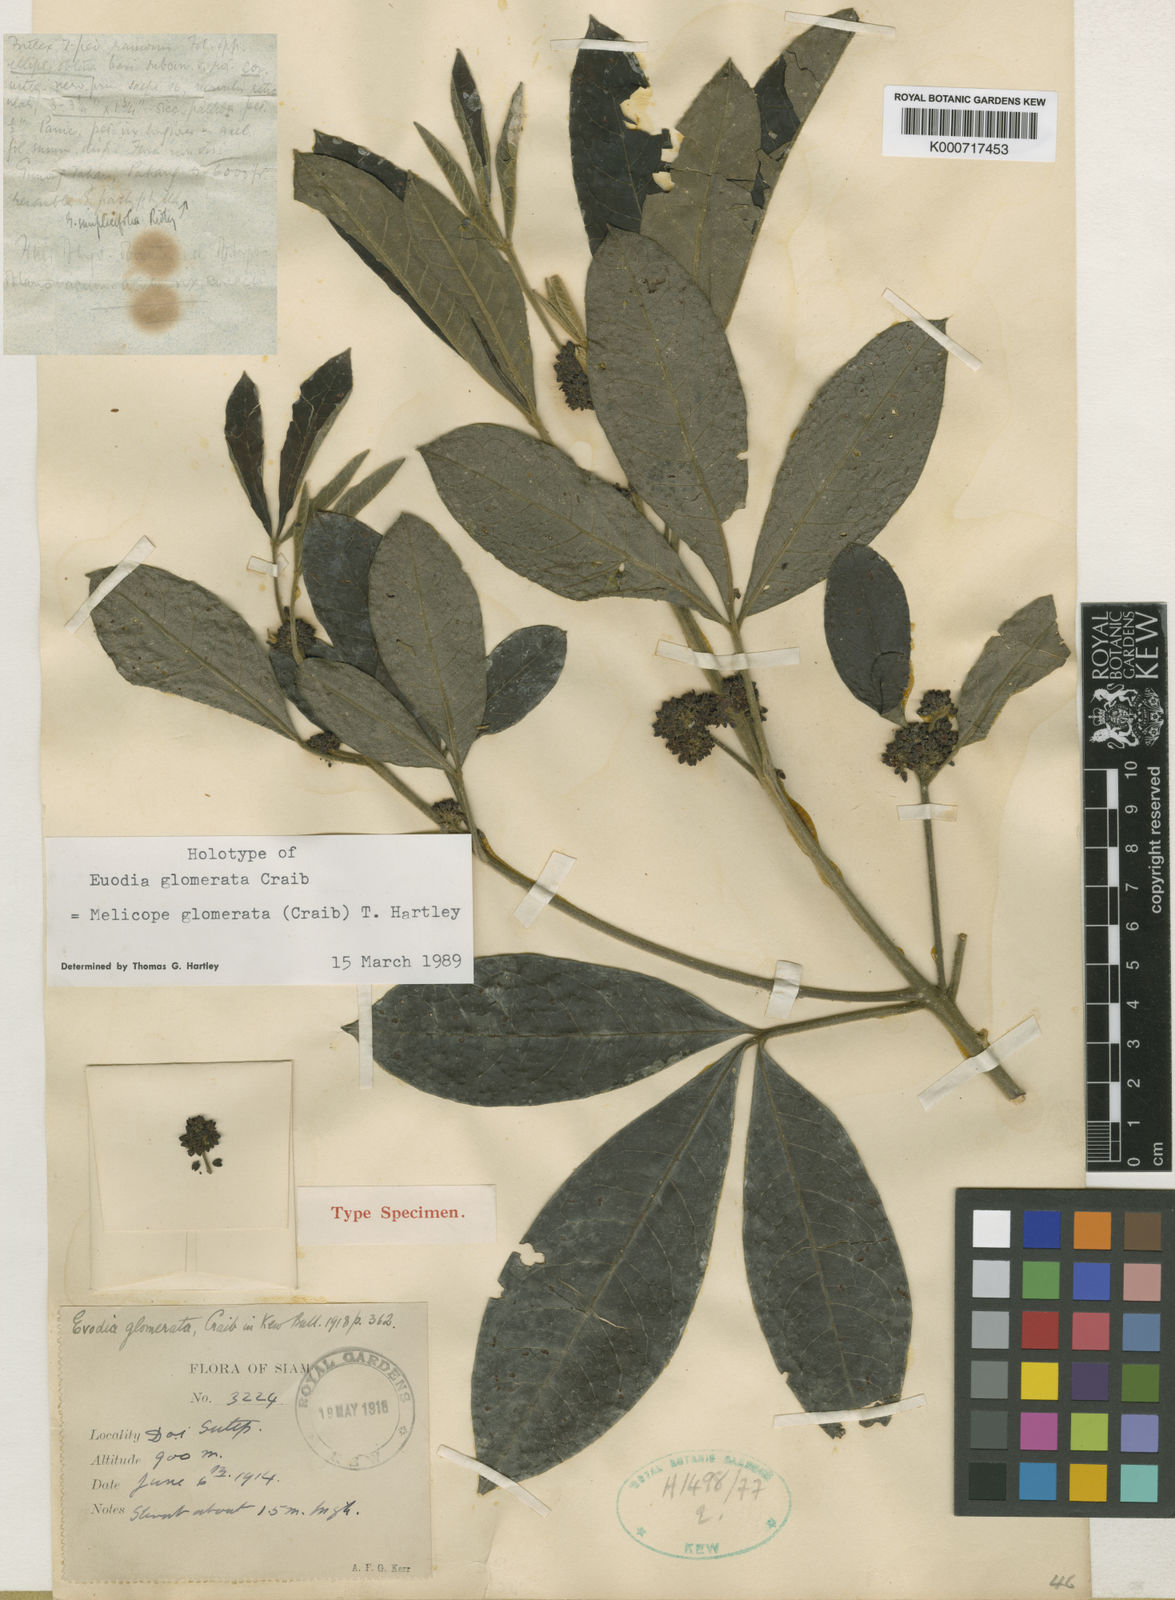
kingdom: Plantae
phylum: Tracheophyta
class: Magnoliopsida
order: Sapindales
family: Rutaceae
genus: Melicope
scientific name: Melicope glomerata
